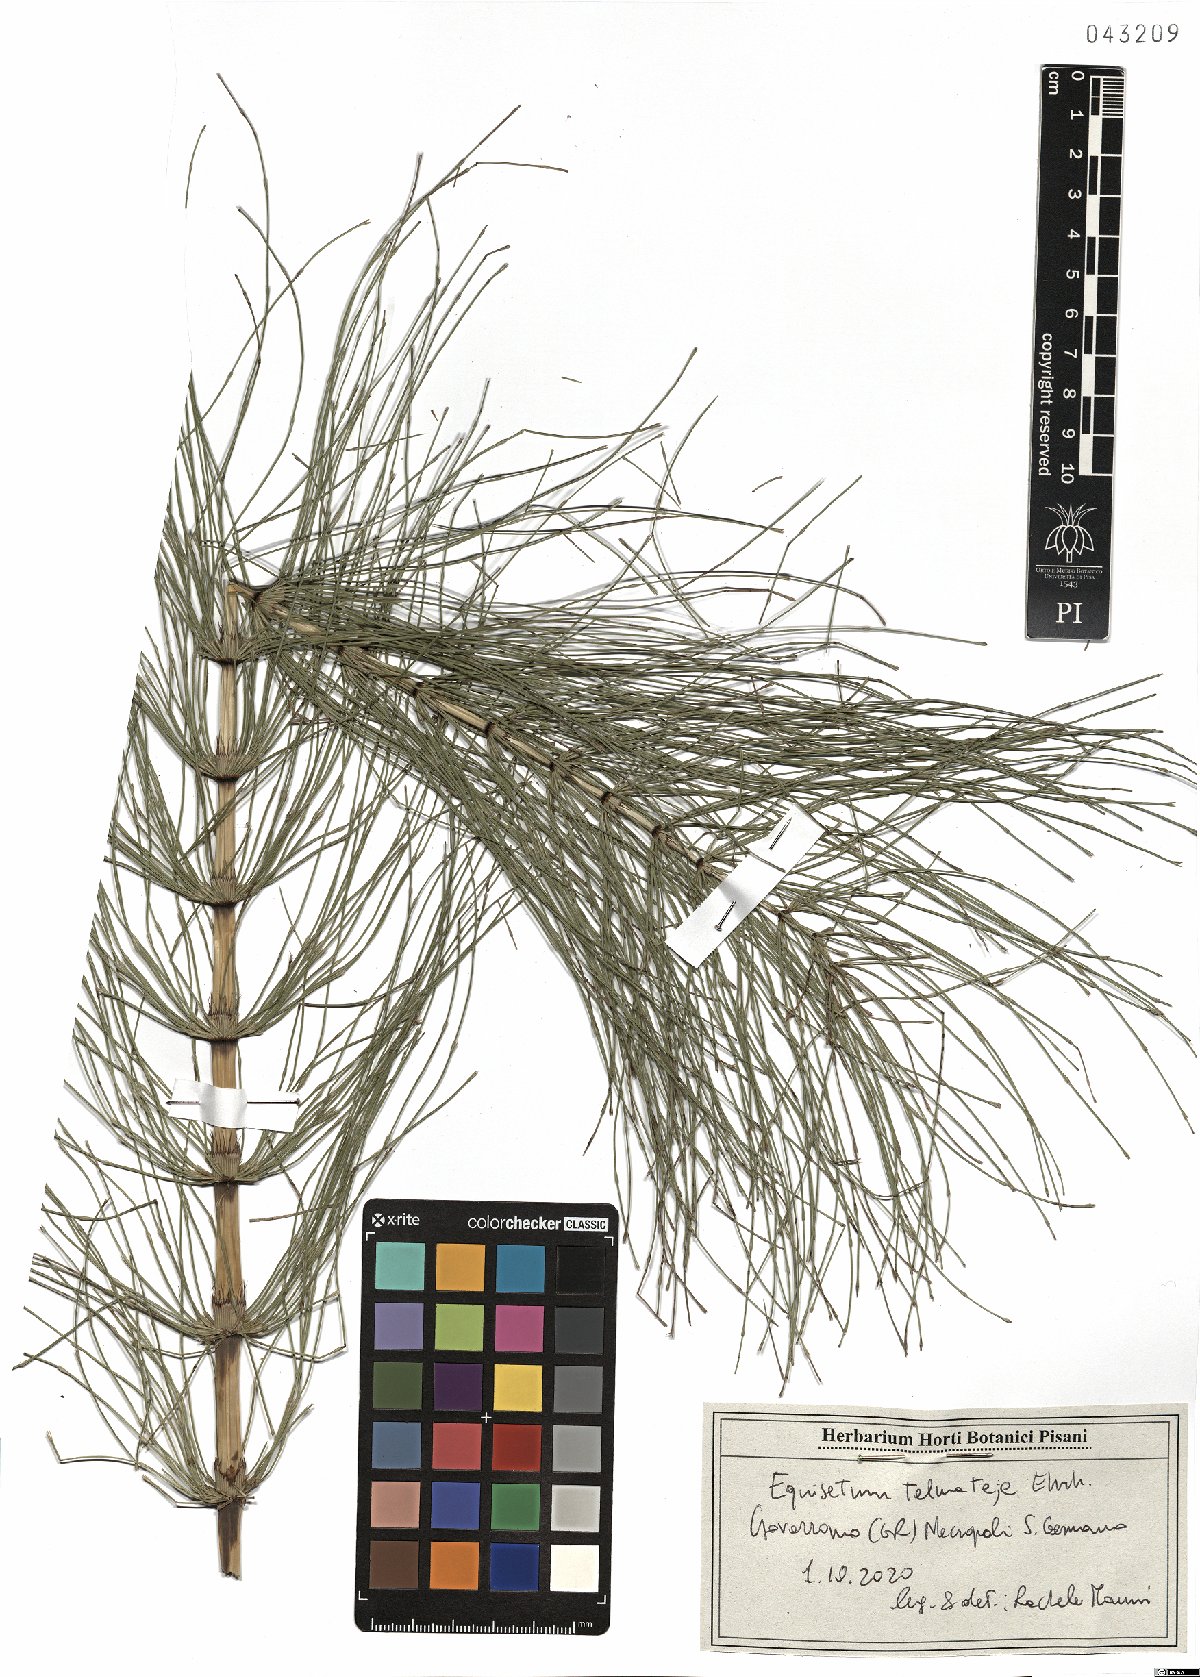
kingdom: Plantae
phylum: Tracheophyta
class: Polypodiopsida
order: Equisetales
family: Equisetaceae
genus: Equisetum
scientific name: Equisetum telmateia
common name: Great horsetail
